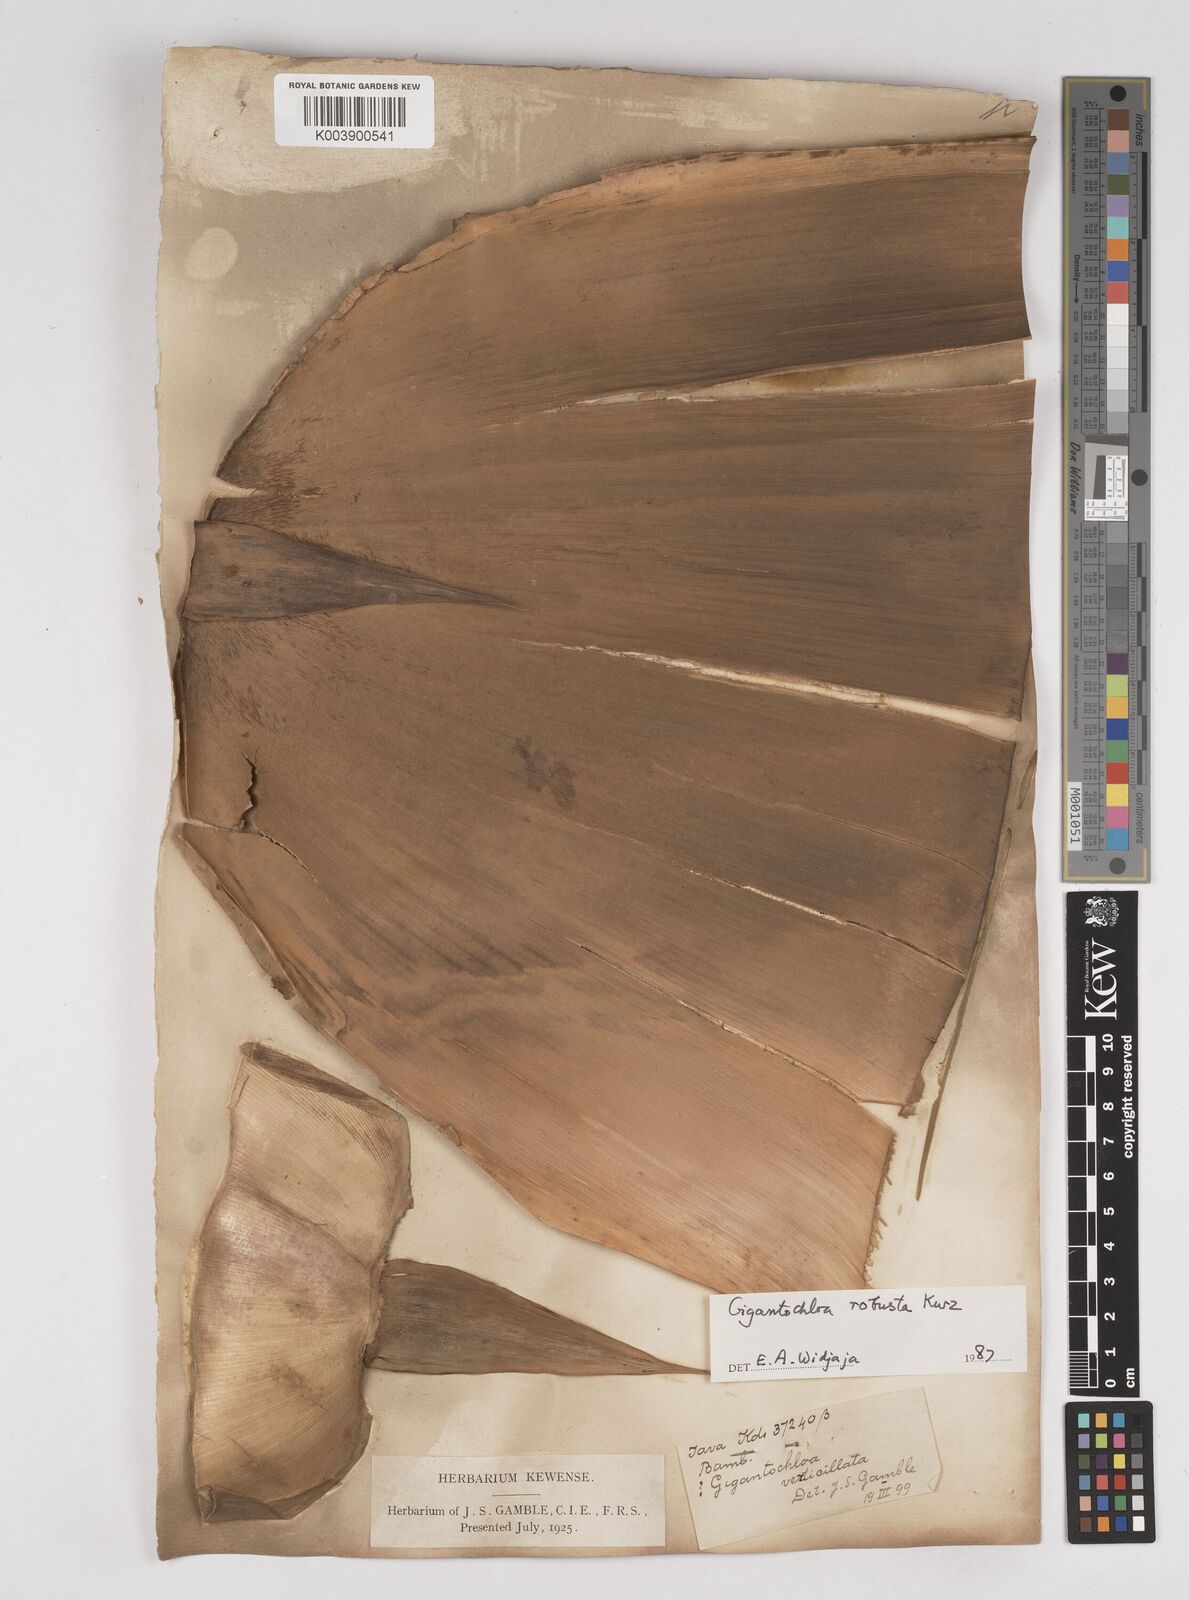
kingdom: Plantae
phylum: Tracheophyta
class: Liliopsida
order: Poales
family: Poaceae
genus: Gigantochloa
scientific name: Gigantochloa robusta
